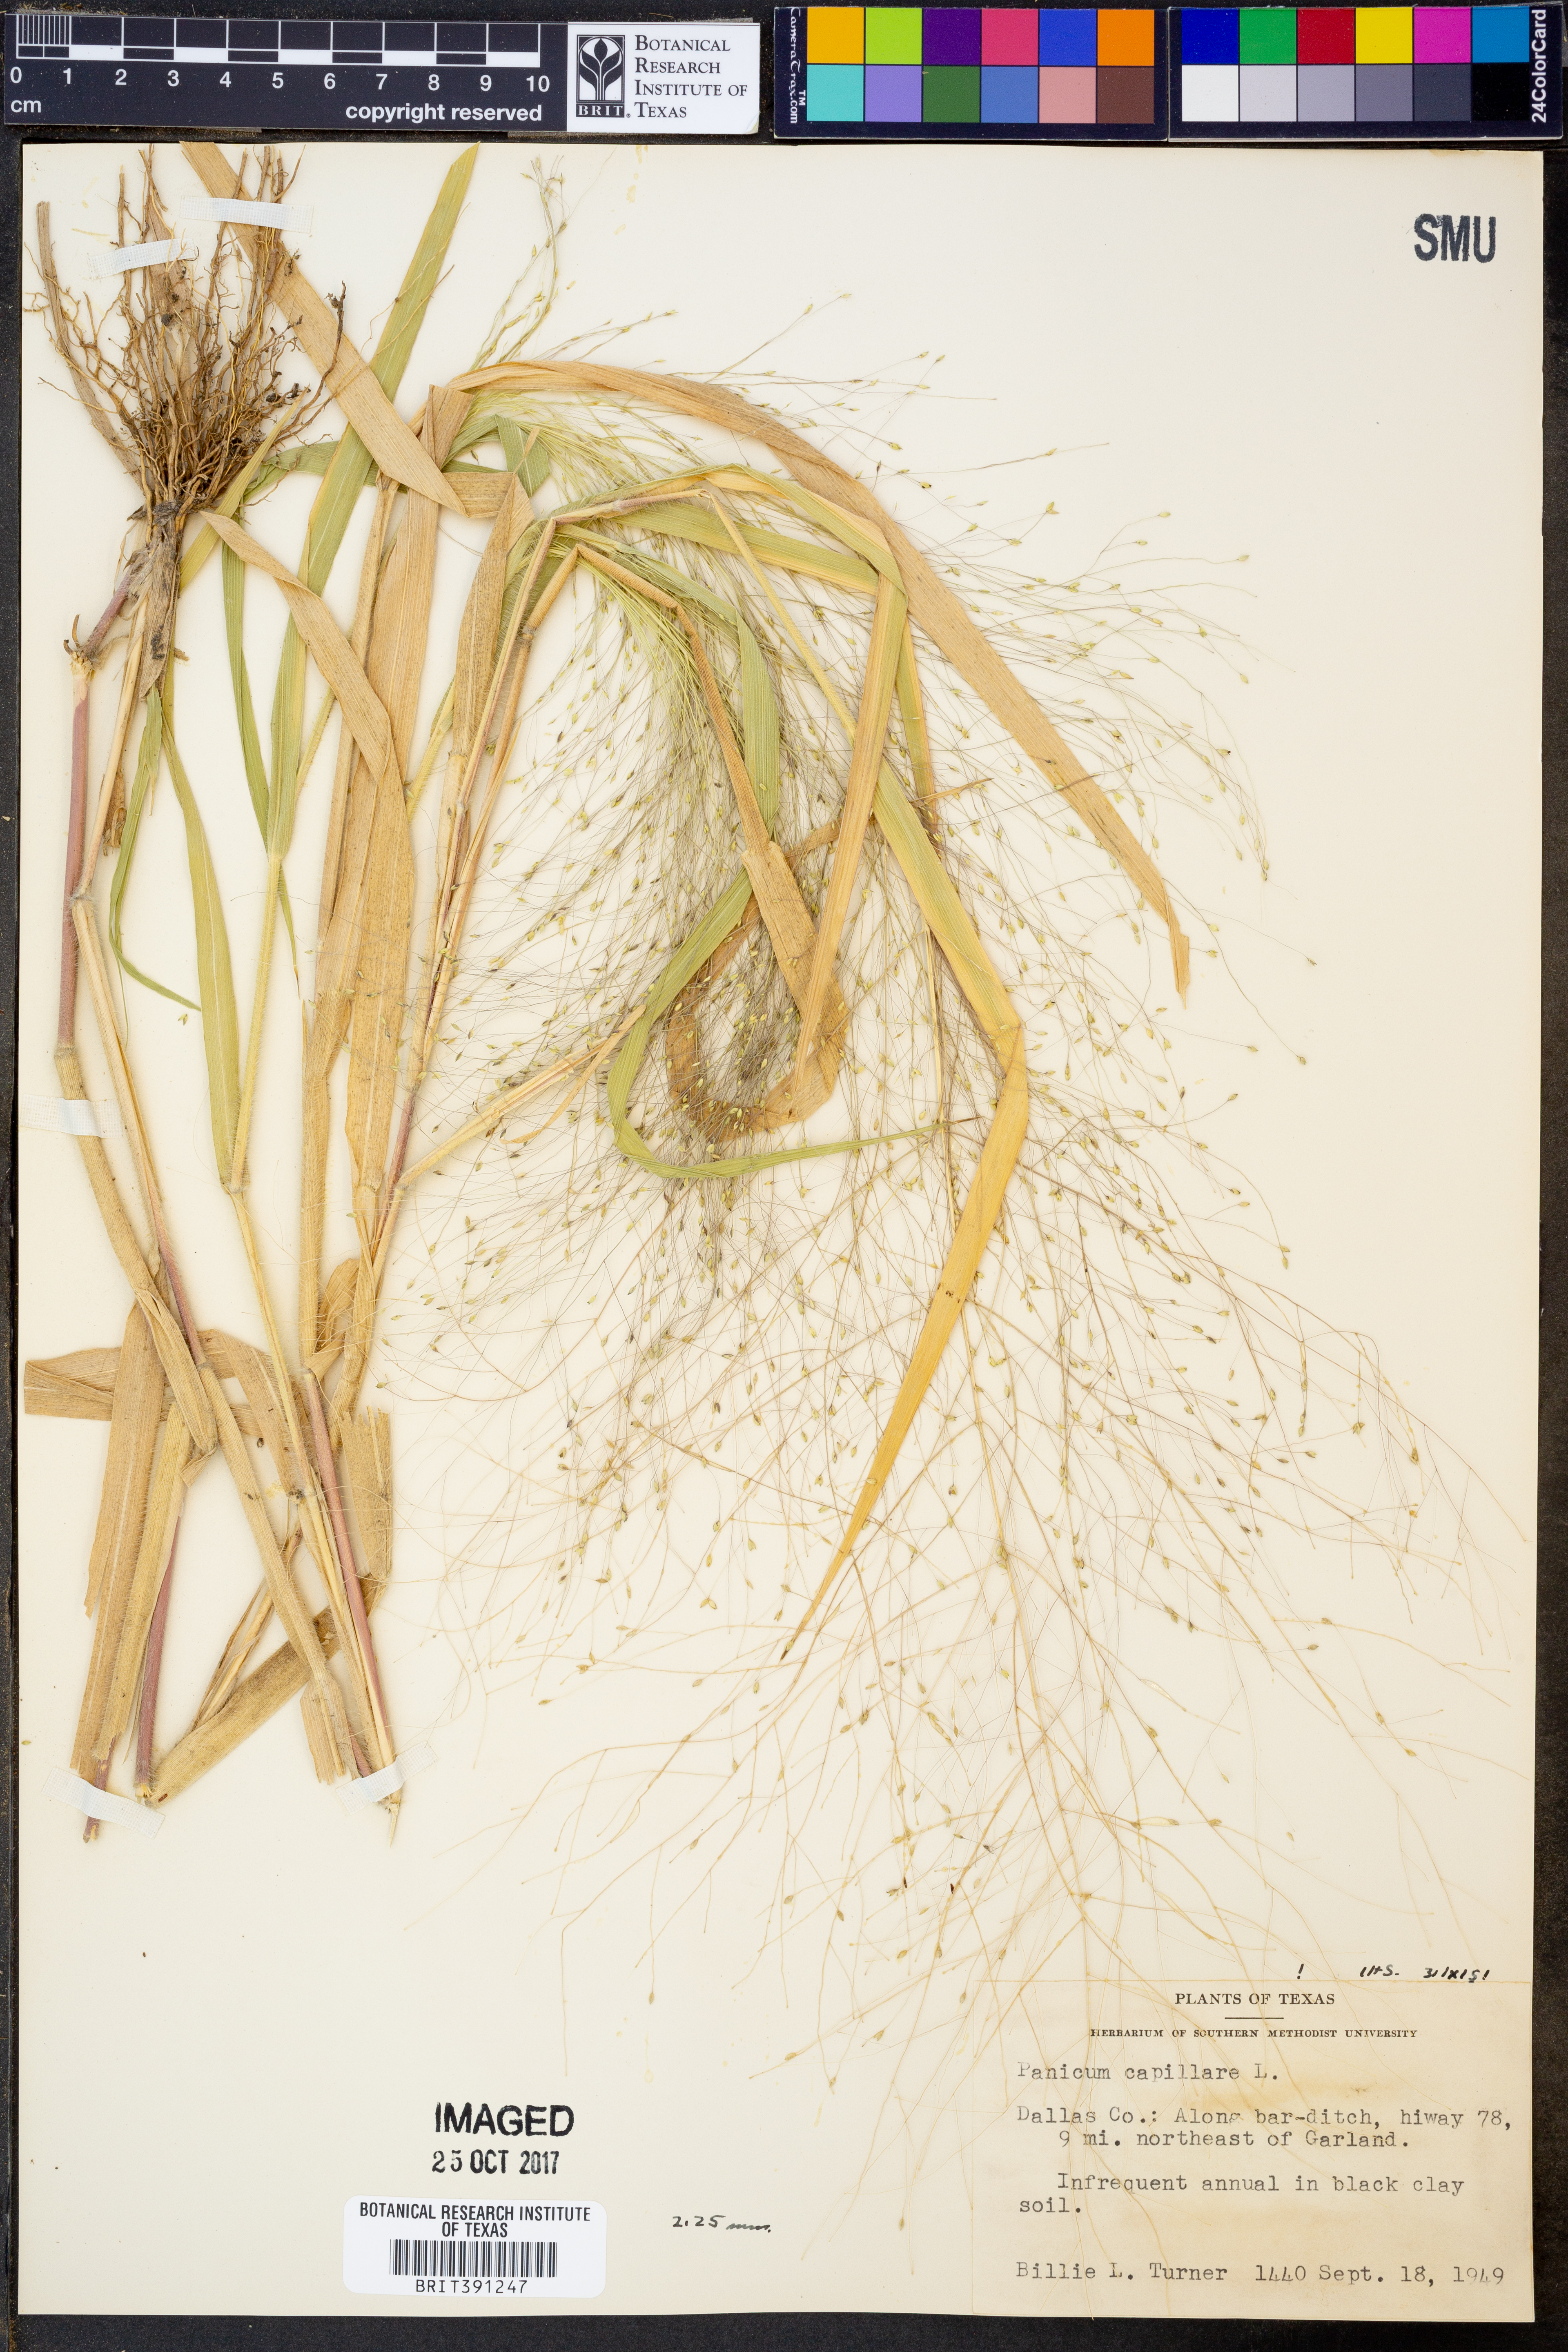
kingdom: Plantae
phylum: Tracheophyta
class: Liliopsida
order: Poales
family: Poaceae
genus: Panicum
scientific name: Panicum capillare
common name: Witch-grass
